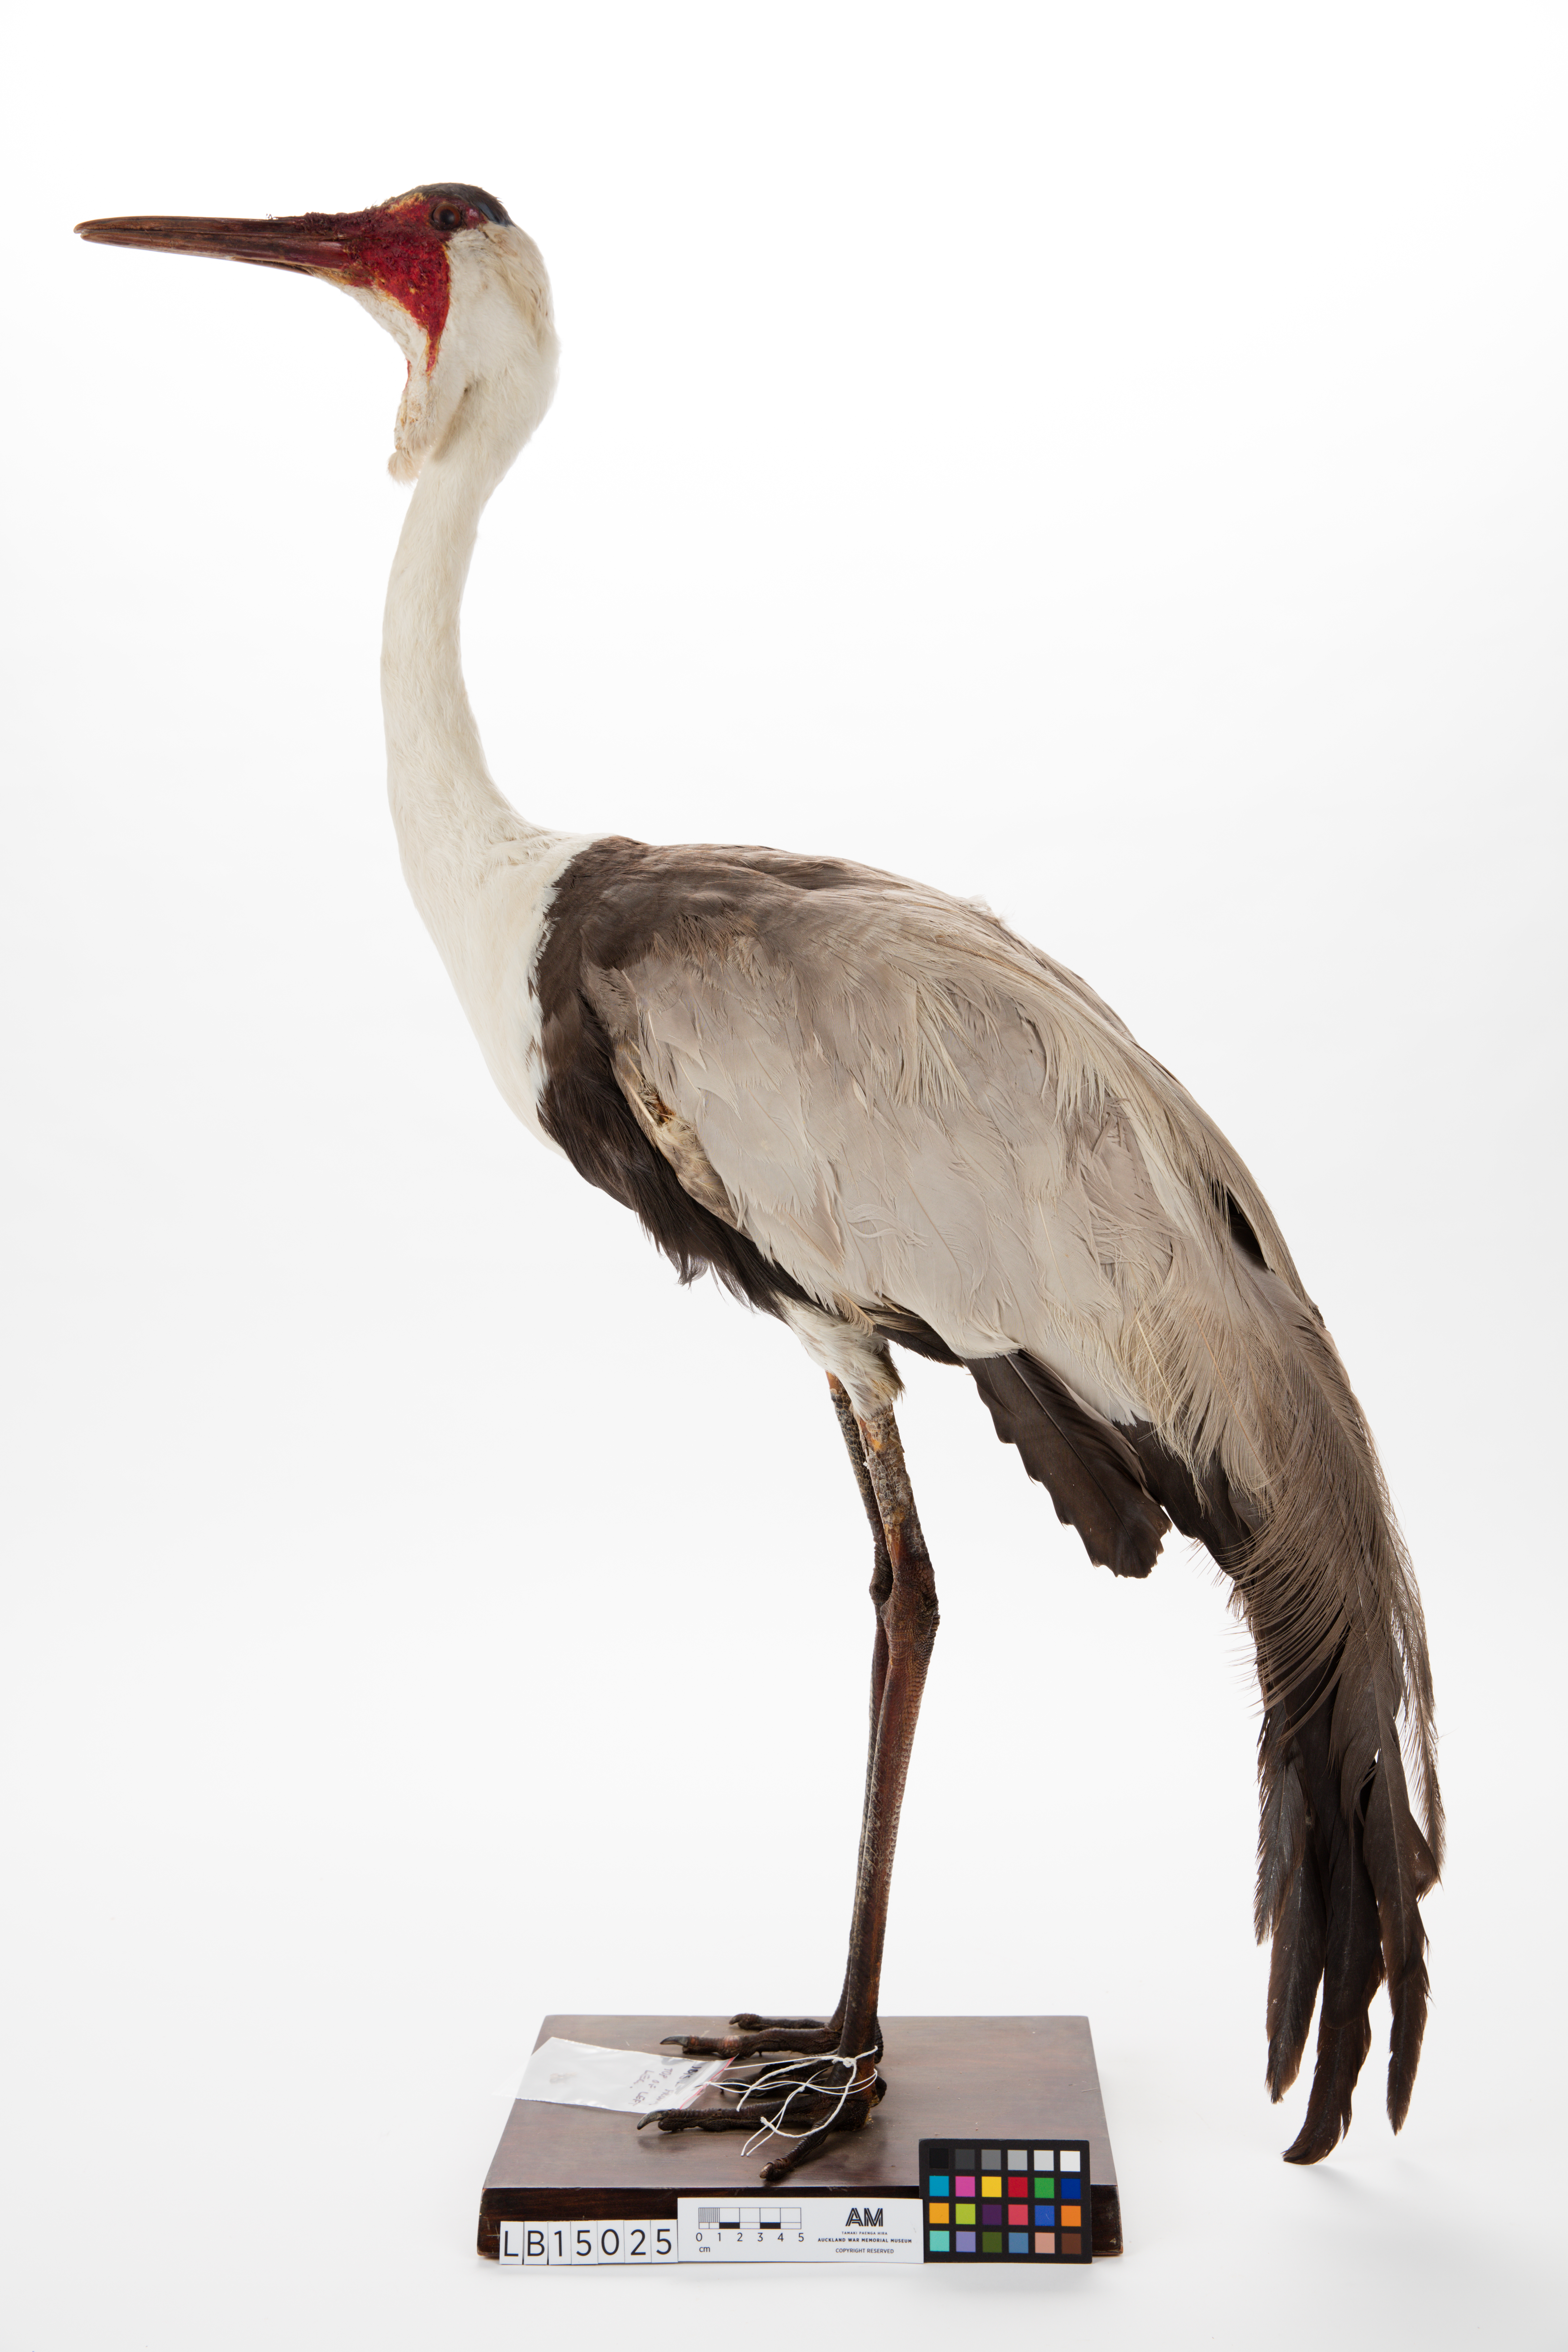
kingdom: Animalia
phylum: Chordata
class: Aves
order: Gruiformes
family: Gruidae
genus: Bugeranus
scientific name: Bugeranus carunculatus
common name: Wattled crane
